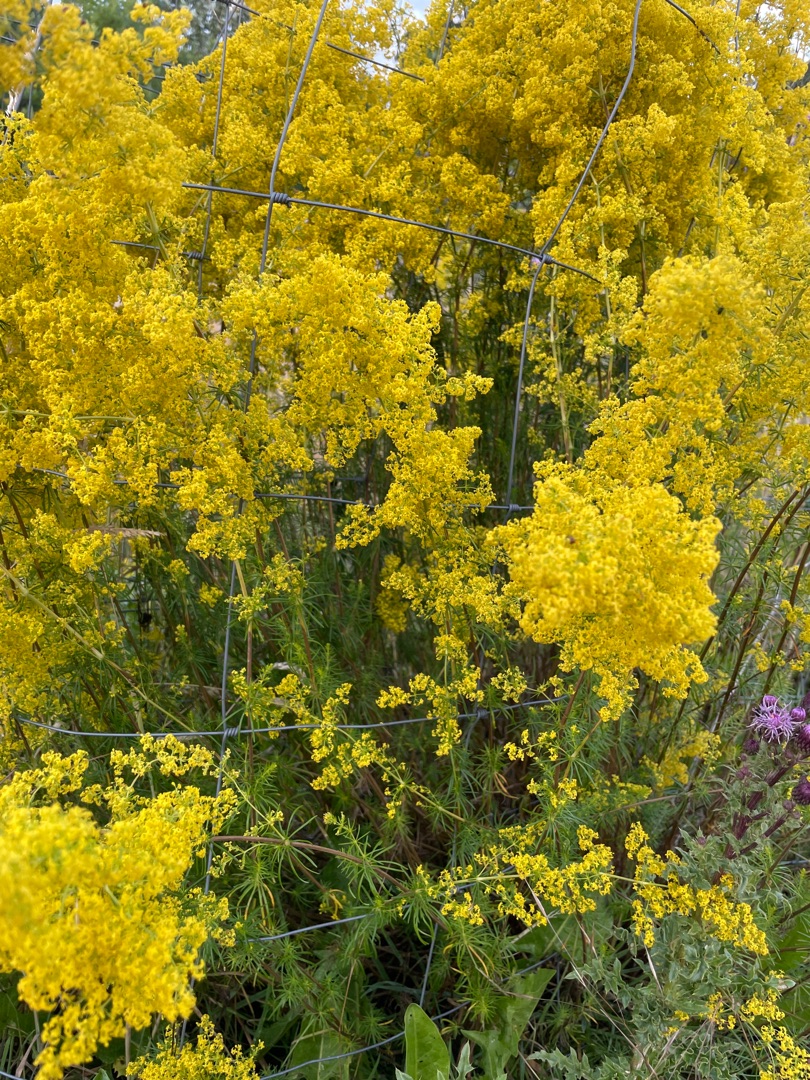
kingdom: Plantae
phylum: Tracheophyta
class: Magnoliopsida
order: Gentianales
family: Rubiaceae
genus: Galium
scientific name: Galium verum
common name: Gul snerre
